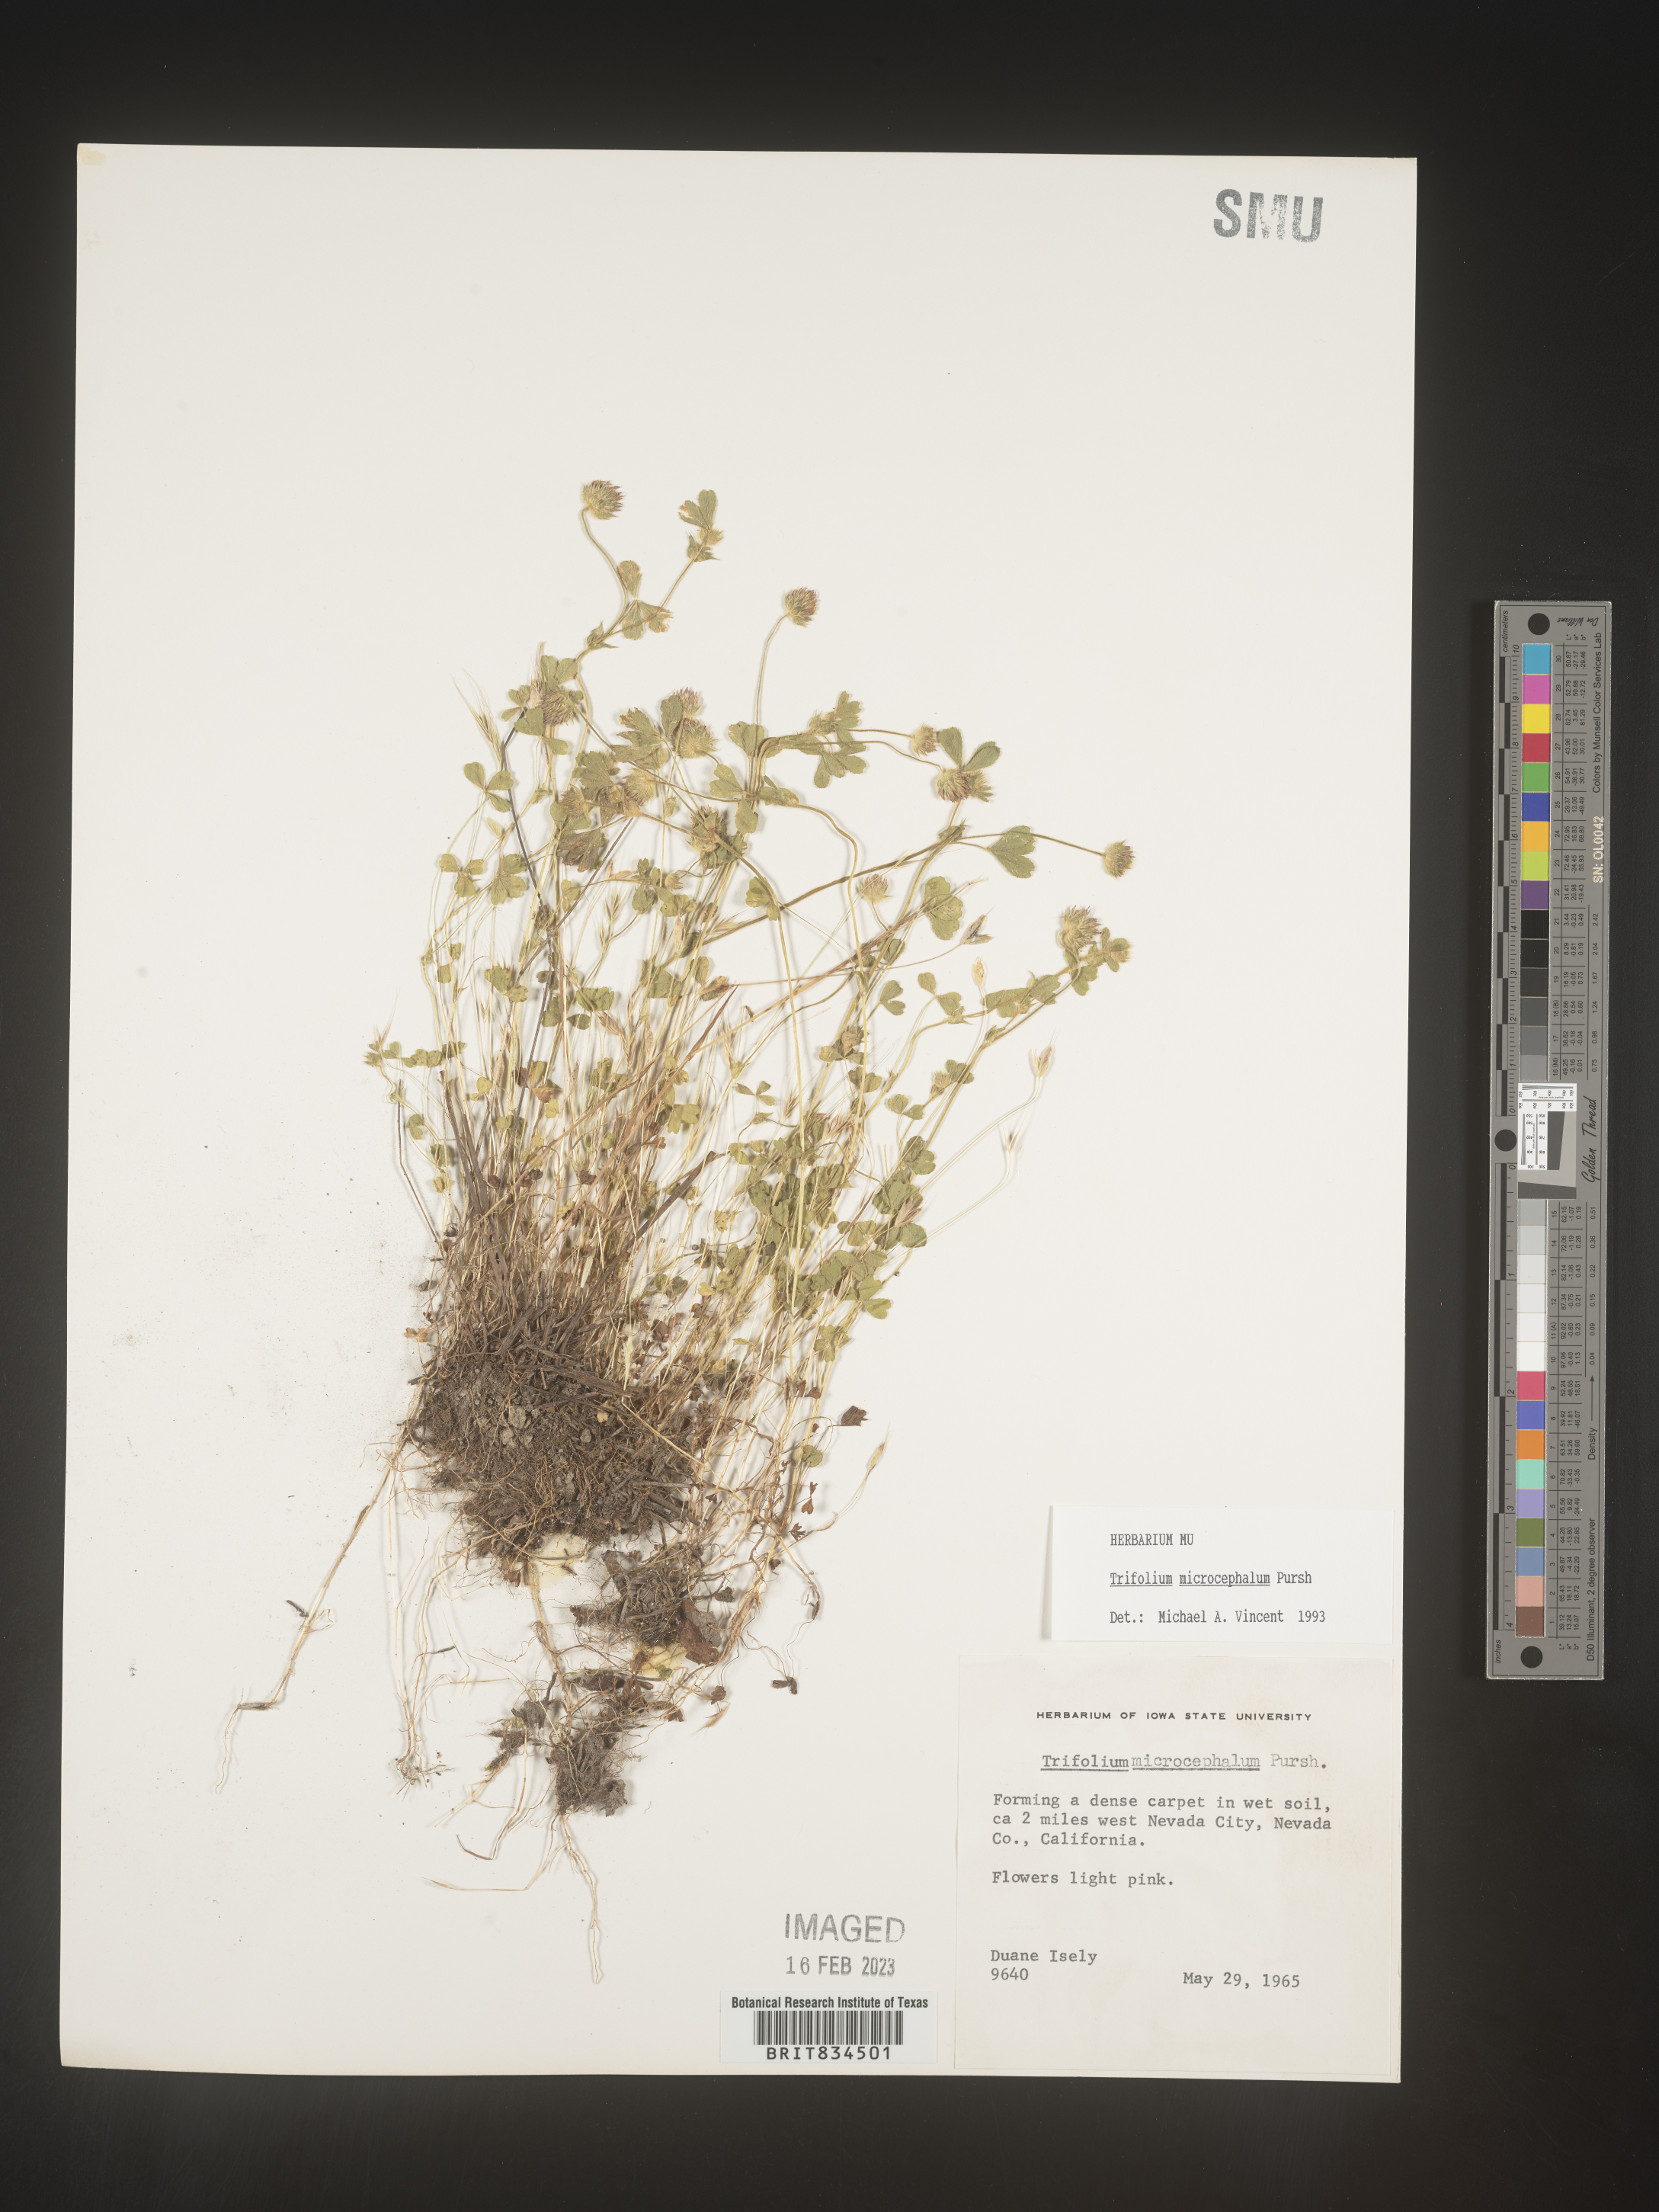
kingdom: Plantae
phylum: Tracheophyta
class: Magnoliopsida
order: Fabales
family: Fabaceae
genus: Trifolium
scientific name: Trifolium
